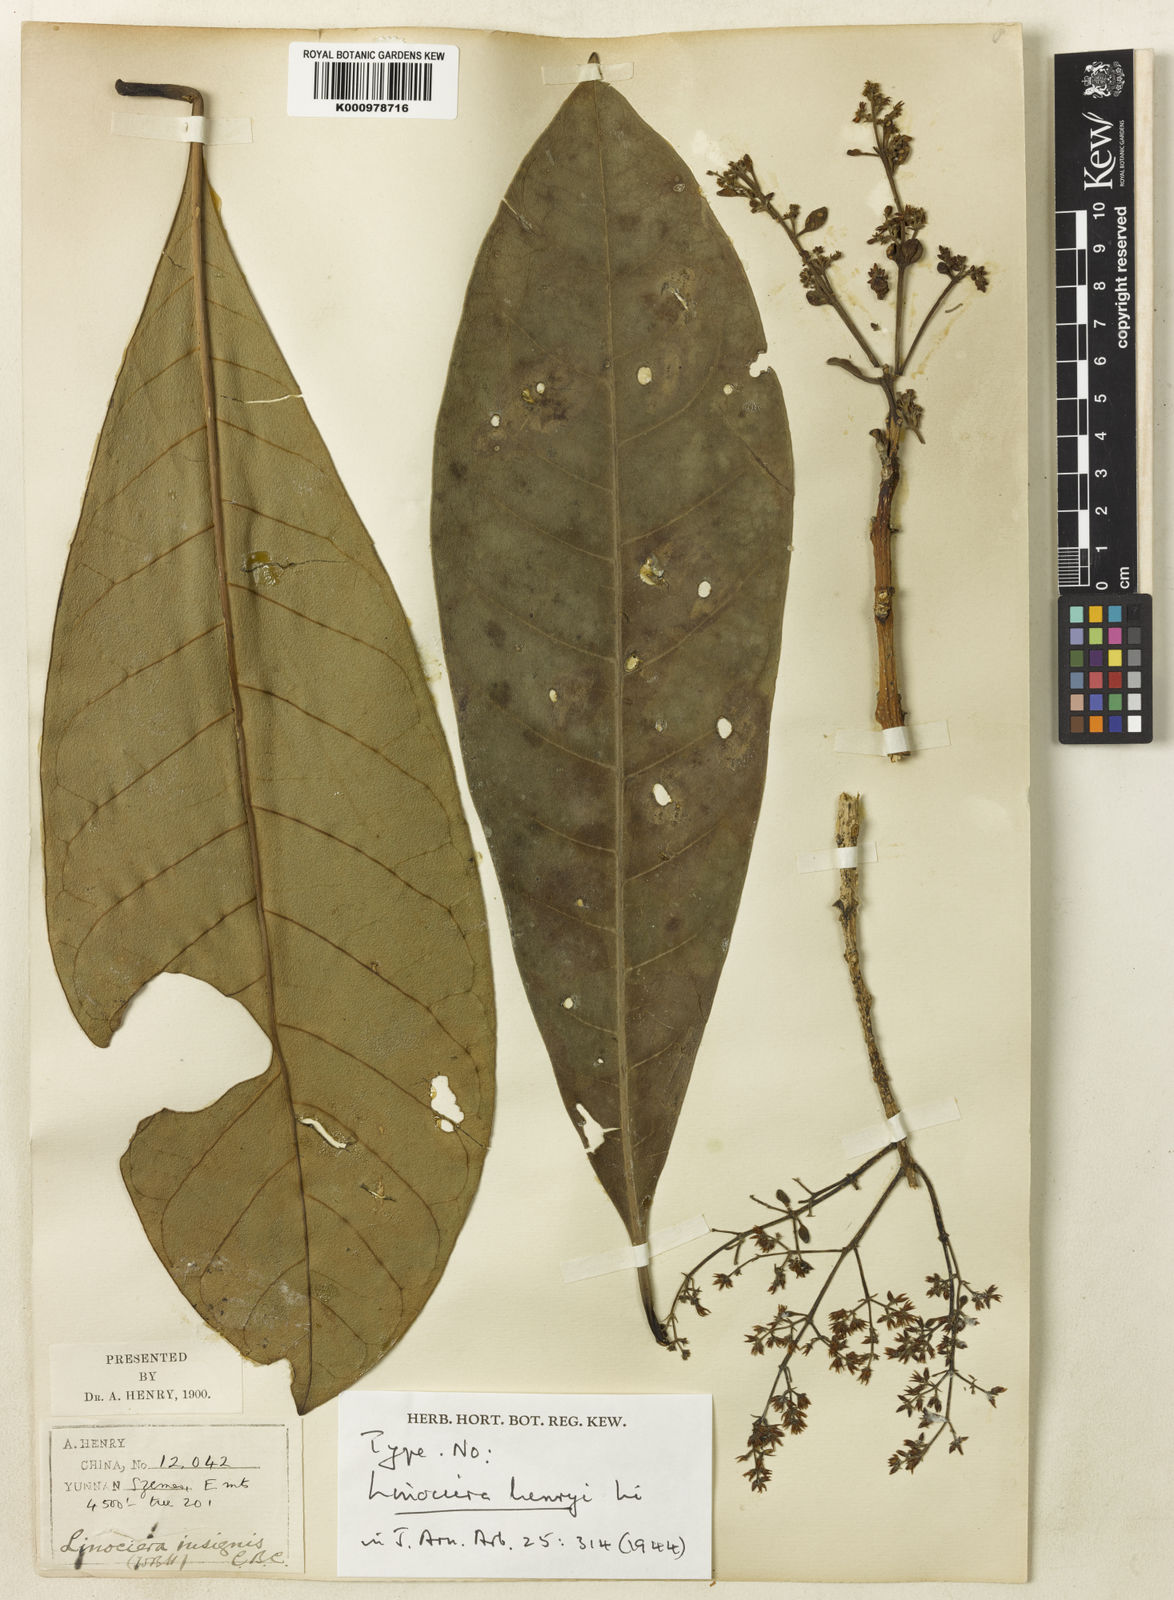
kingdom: Plantae
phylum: Tracheophyta
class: Magnoliopsida
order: Lamiales
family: Oleaceae
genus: Chionanthus
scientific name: Chionanthus henryae
